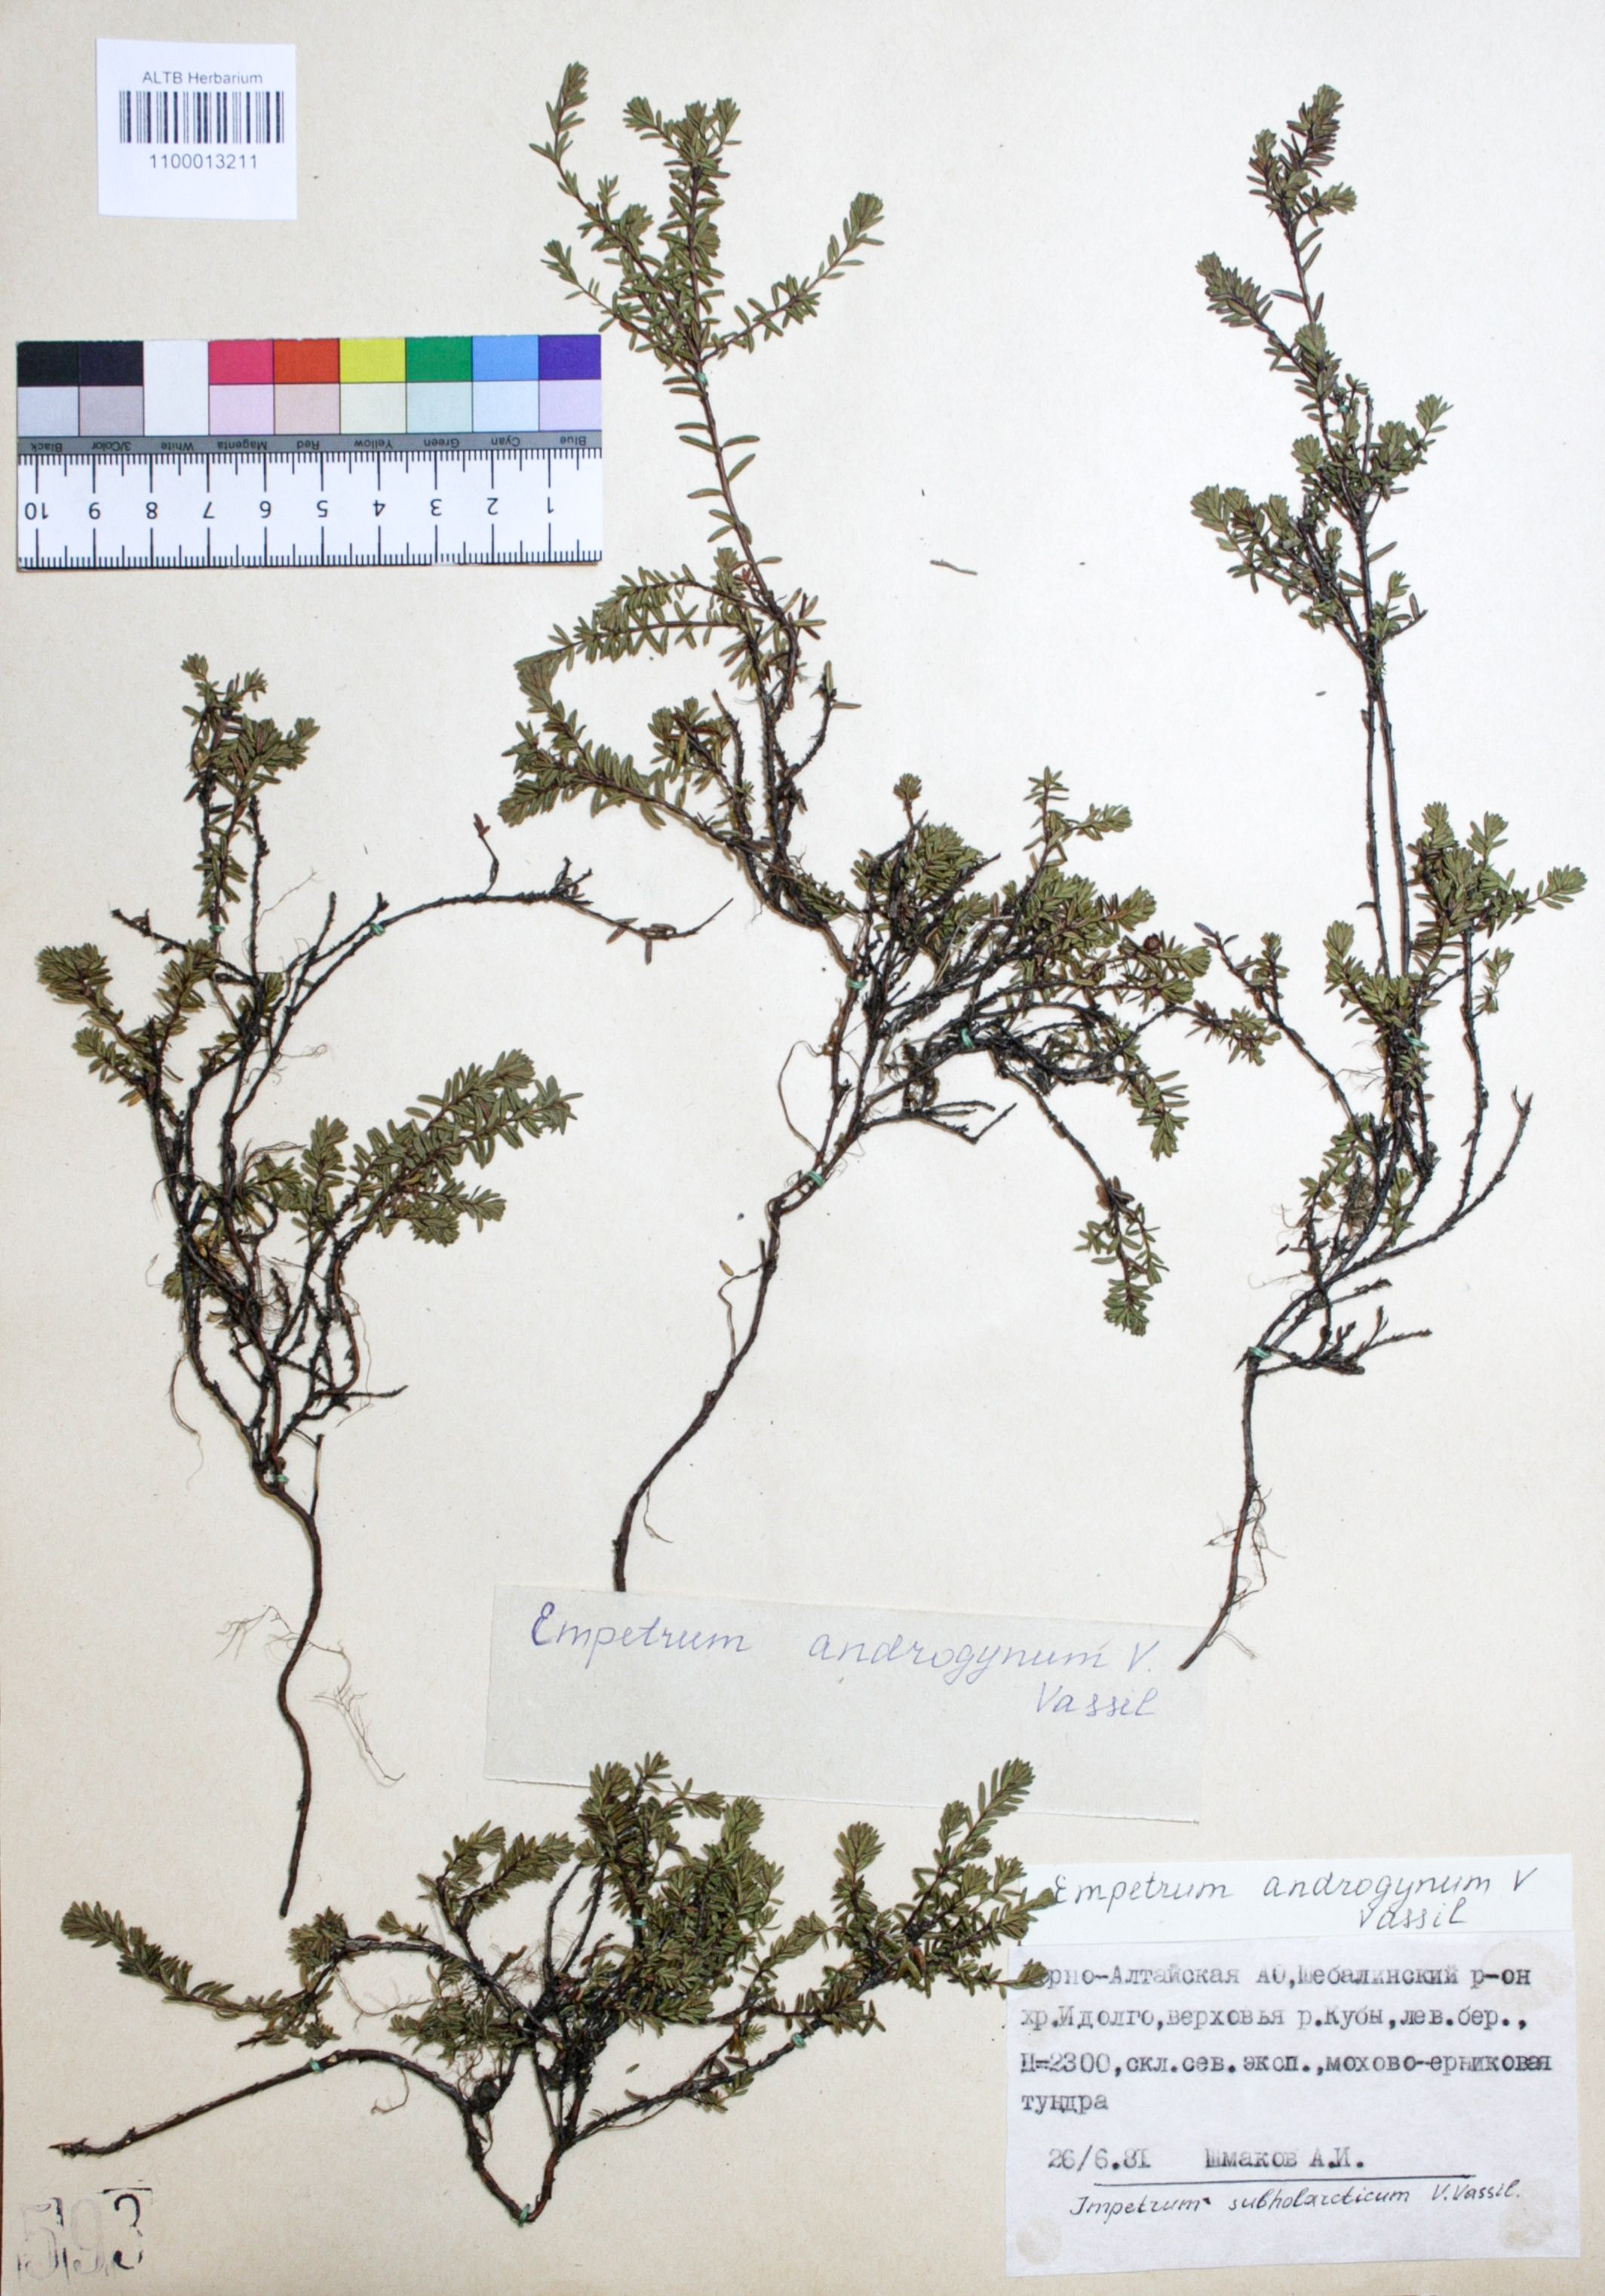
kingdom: Plantae
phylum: Tracheophyta
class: Magnoliopsida
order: Ericales
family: Ericaceae
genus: Empetrum
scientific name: Empetrum nigrum
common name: Black crowberry
